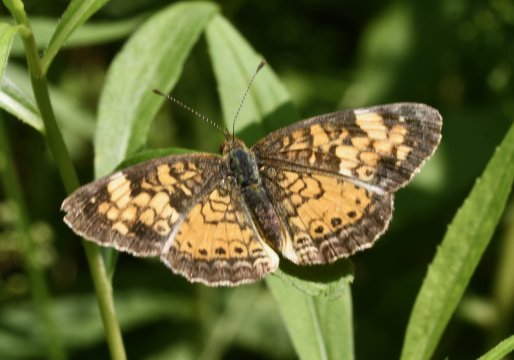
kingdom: Animalia
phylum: Arthropoda
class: Insecta
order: Lepidoptera
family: Nymphalidae
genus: Phyciodes
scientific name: Phyciodes tharos
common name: Northern Crescent
